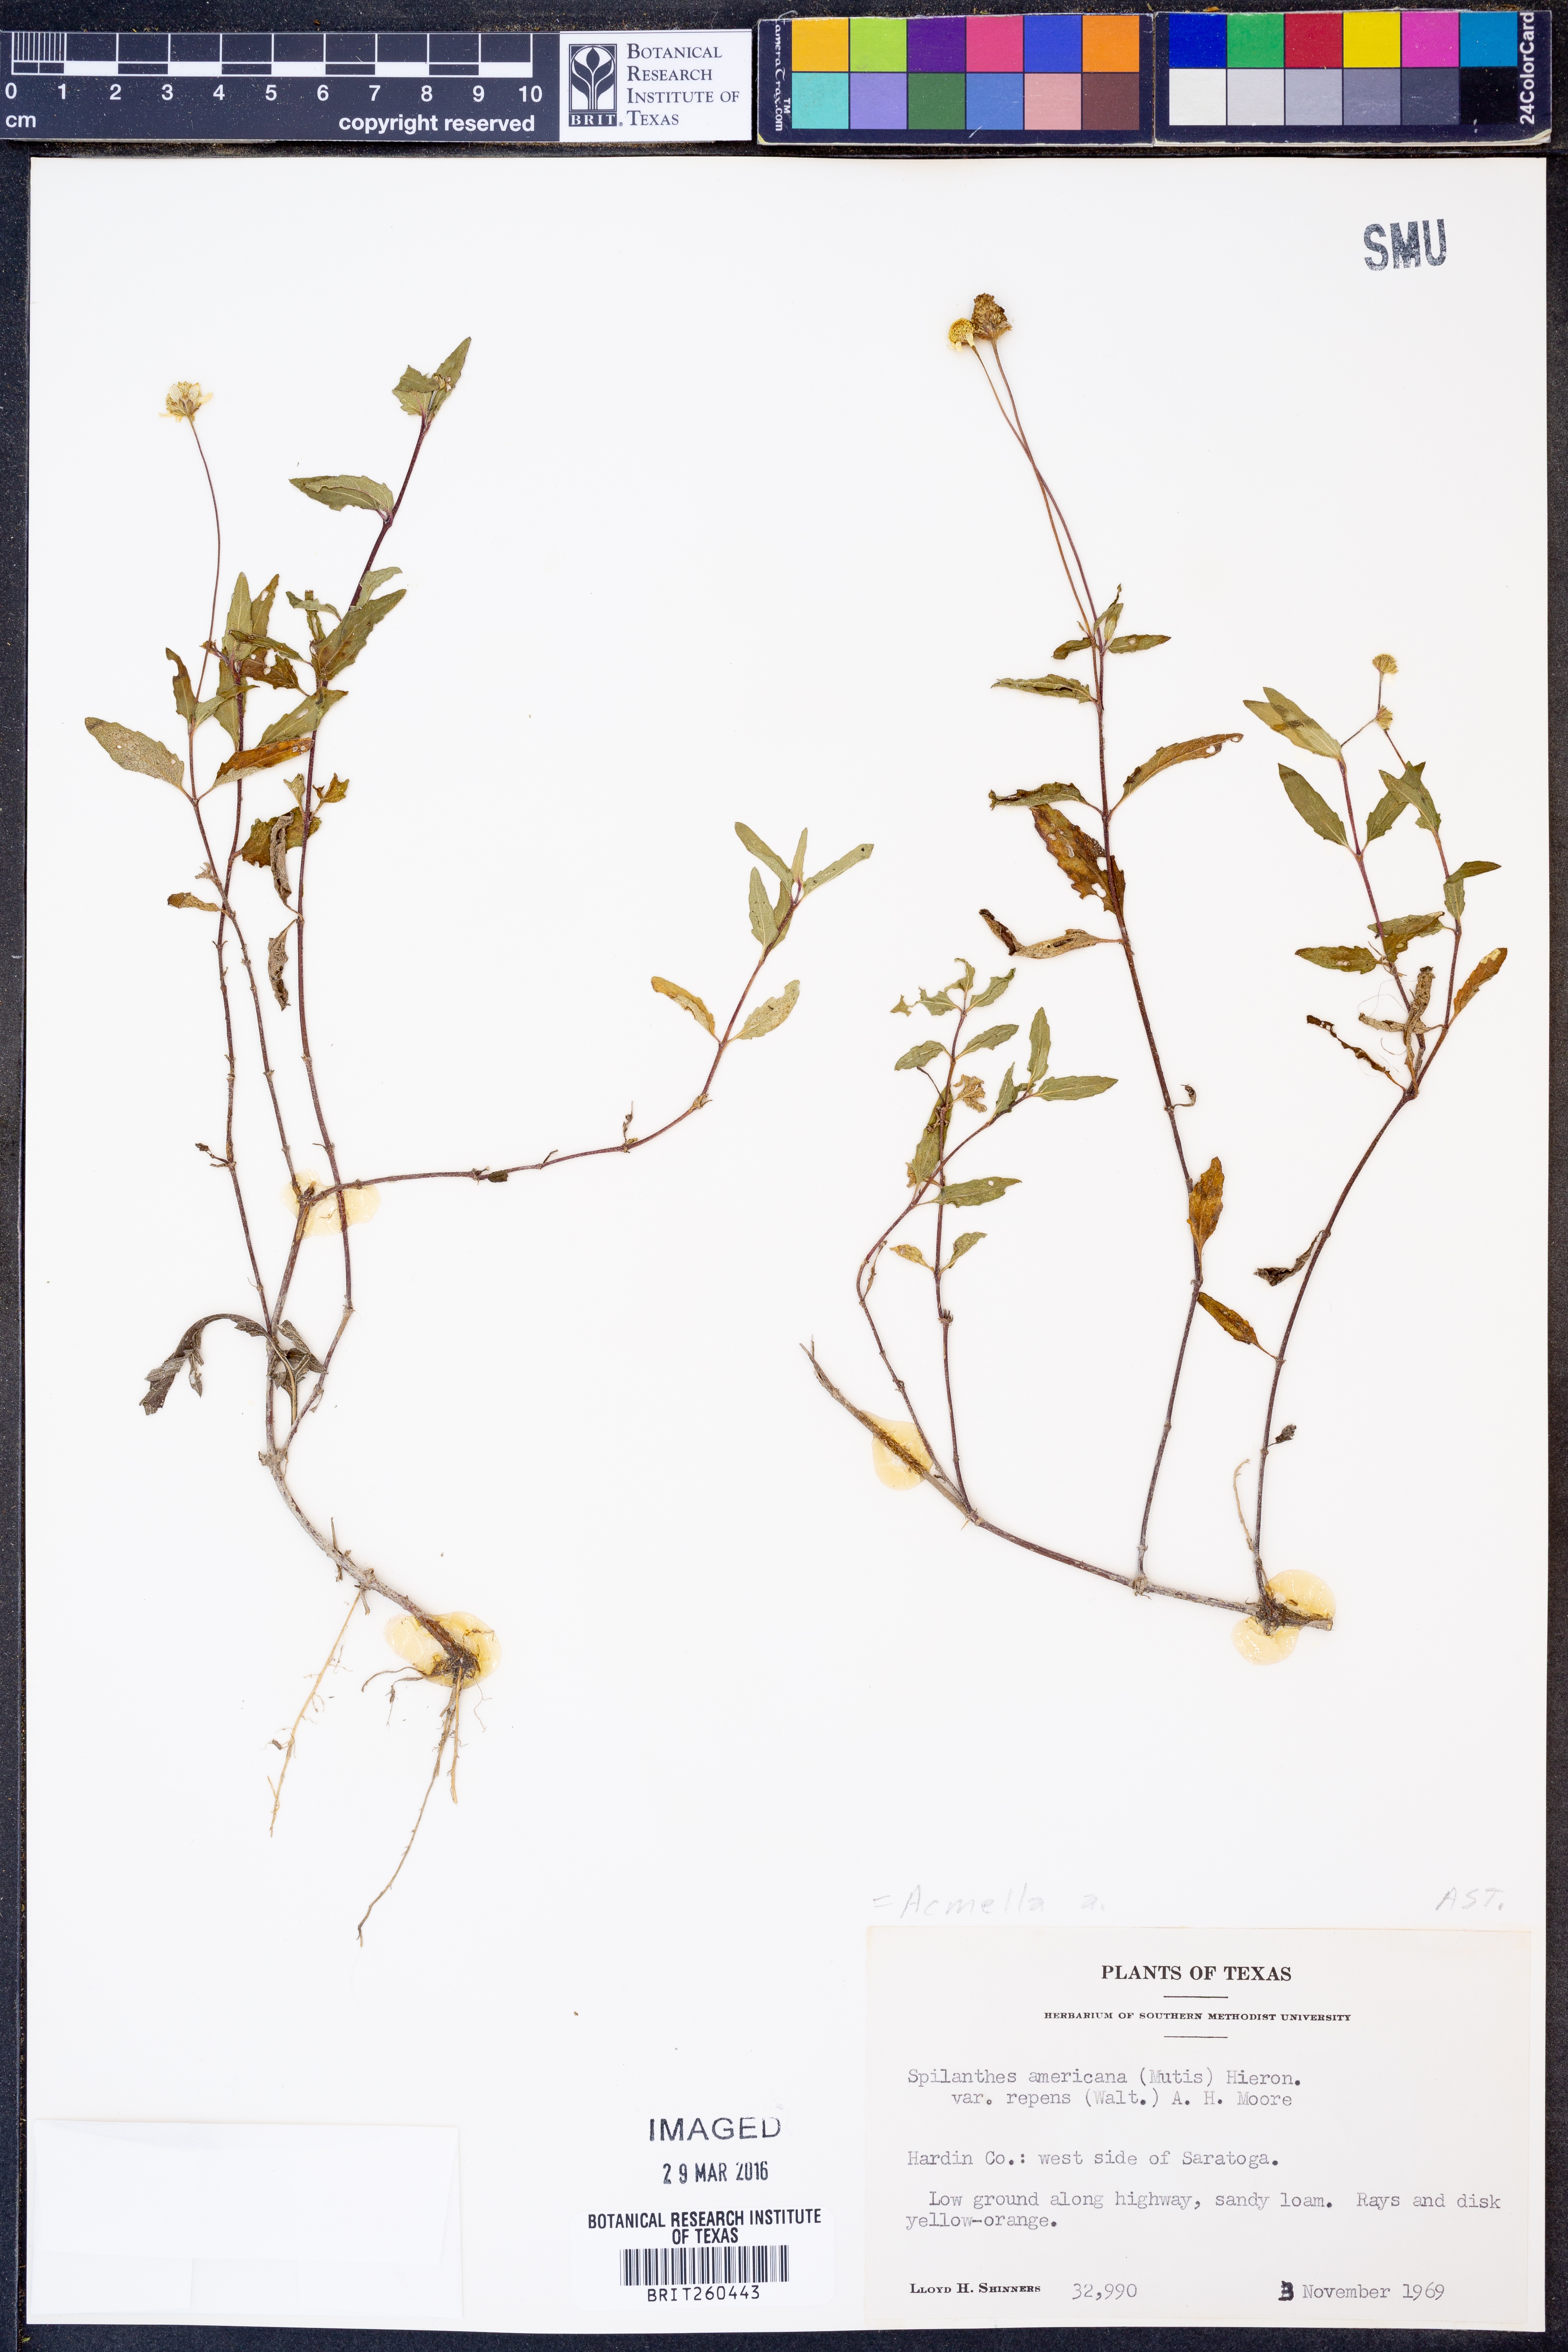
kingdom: Plantae
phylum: Tracheophyta
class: Magnoliopsida
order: Asterales
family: Asteraceae
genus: Acmella
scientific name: Acmella
